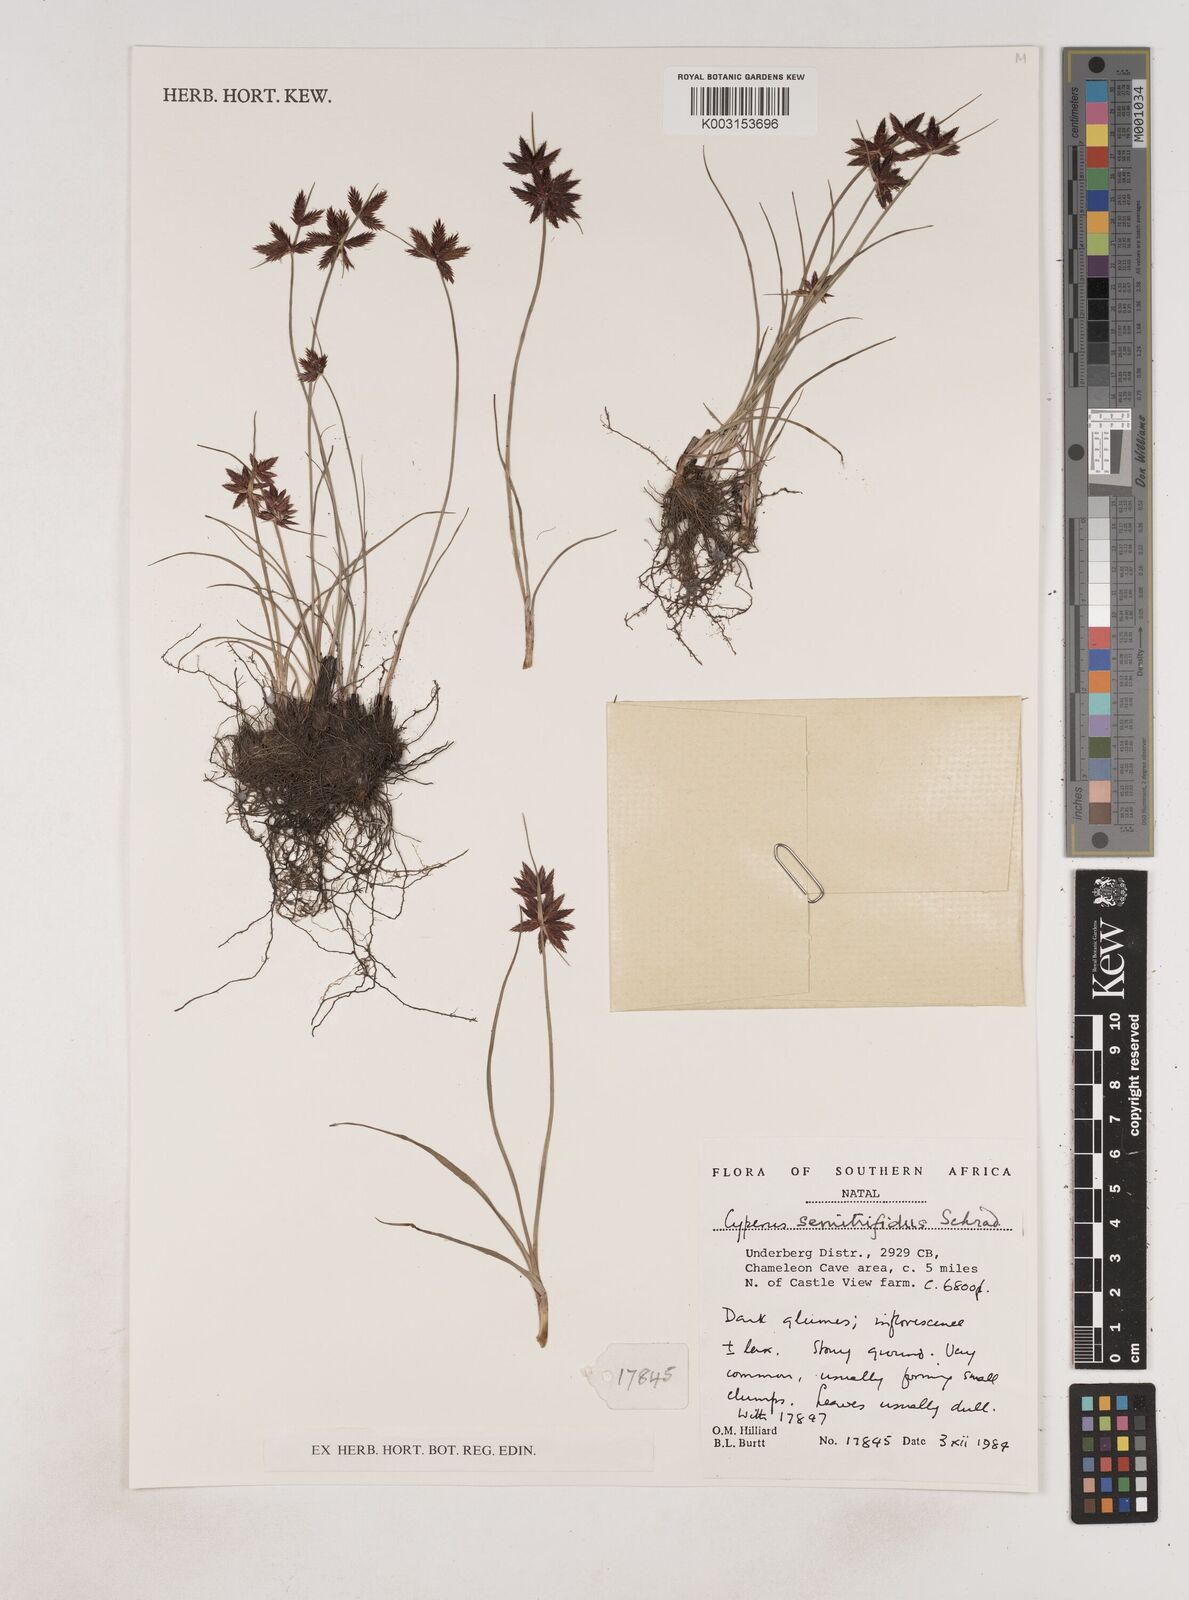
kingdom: Plantae
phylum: Tracheophyta
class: Liliopsida
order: Poales
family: Cyperaceae
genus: Cyperus
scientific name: Cyperus semitrifidus
